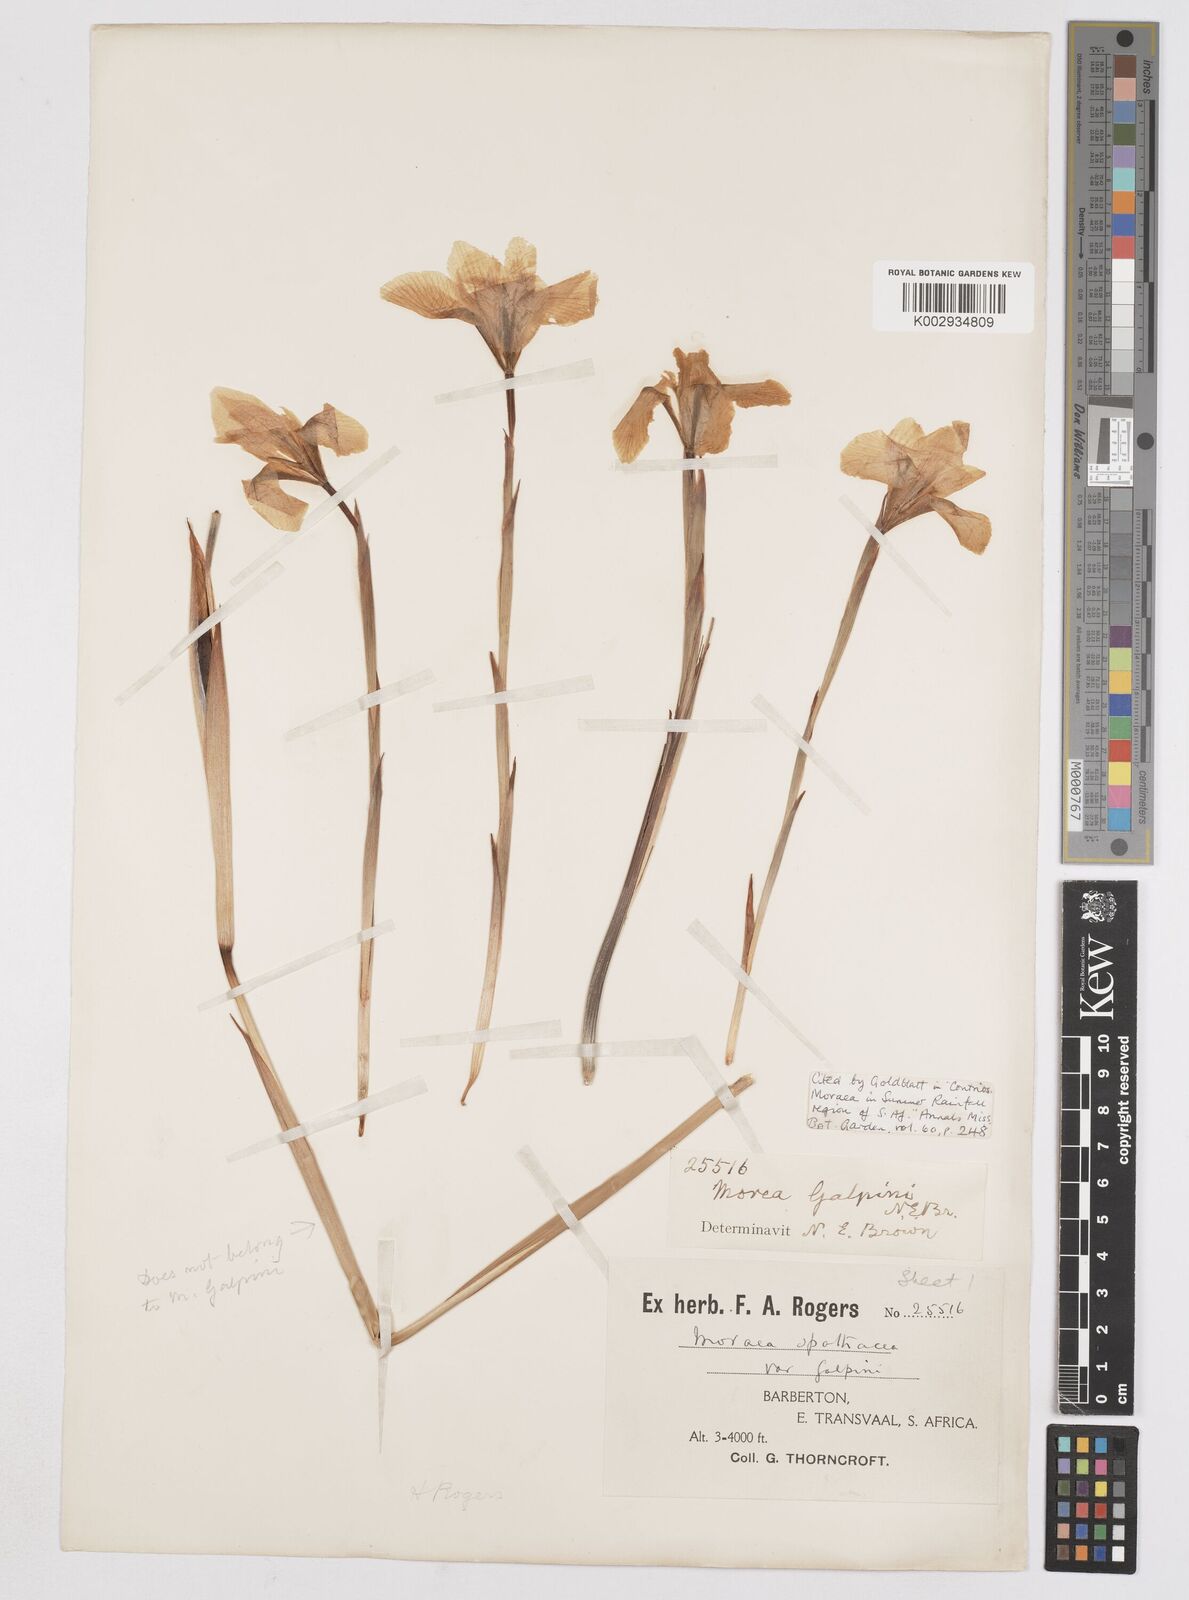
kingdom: Plantae
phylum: Tracheophyta
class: Liliopsida
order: Asparagales
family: Iridaceae
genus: Moraea
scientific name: Moraea galpinii
